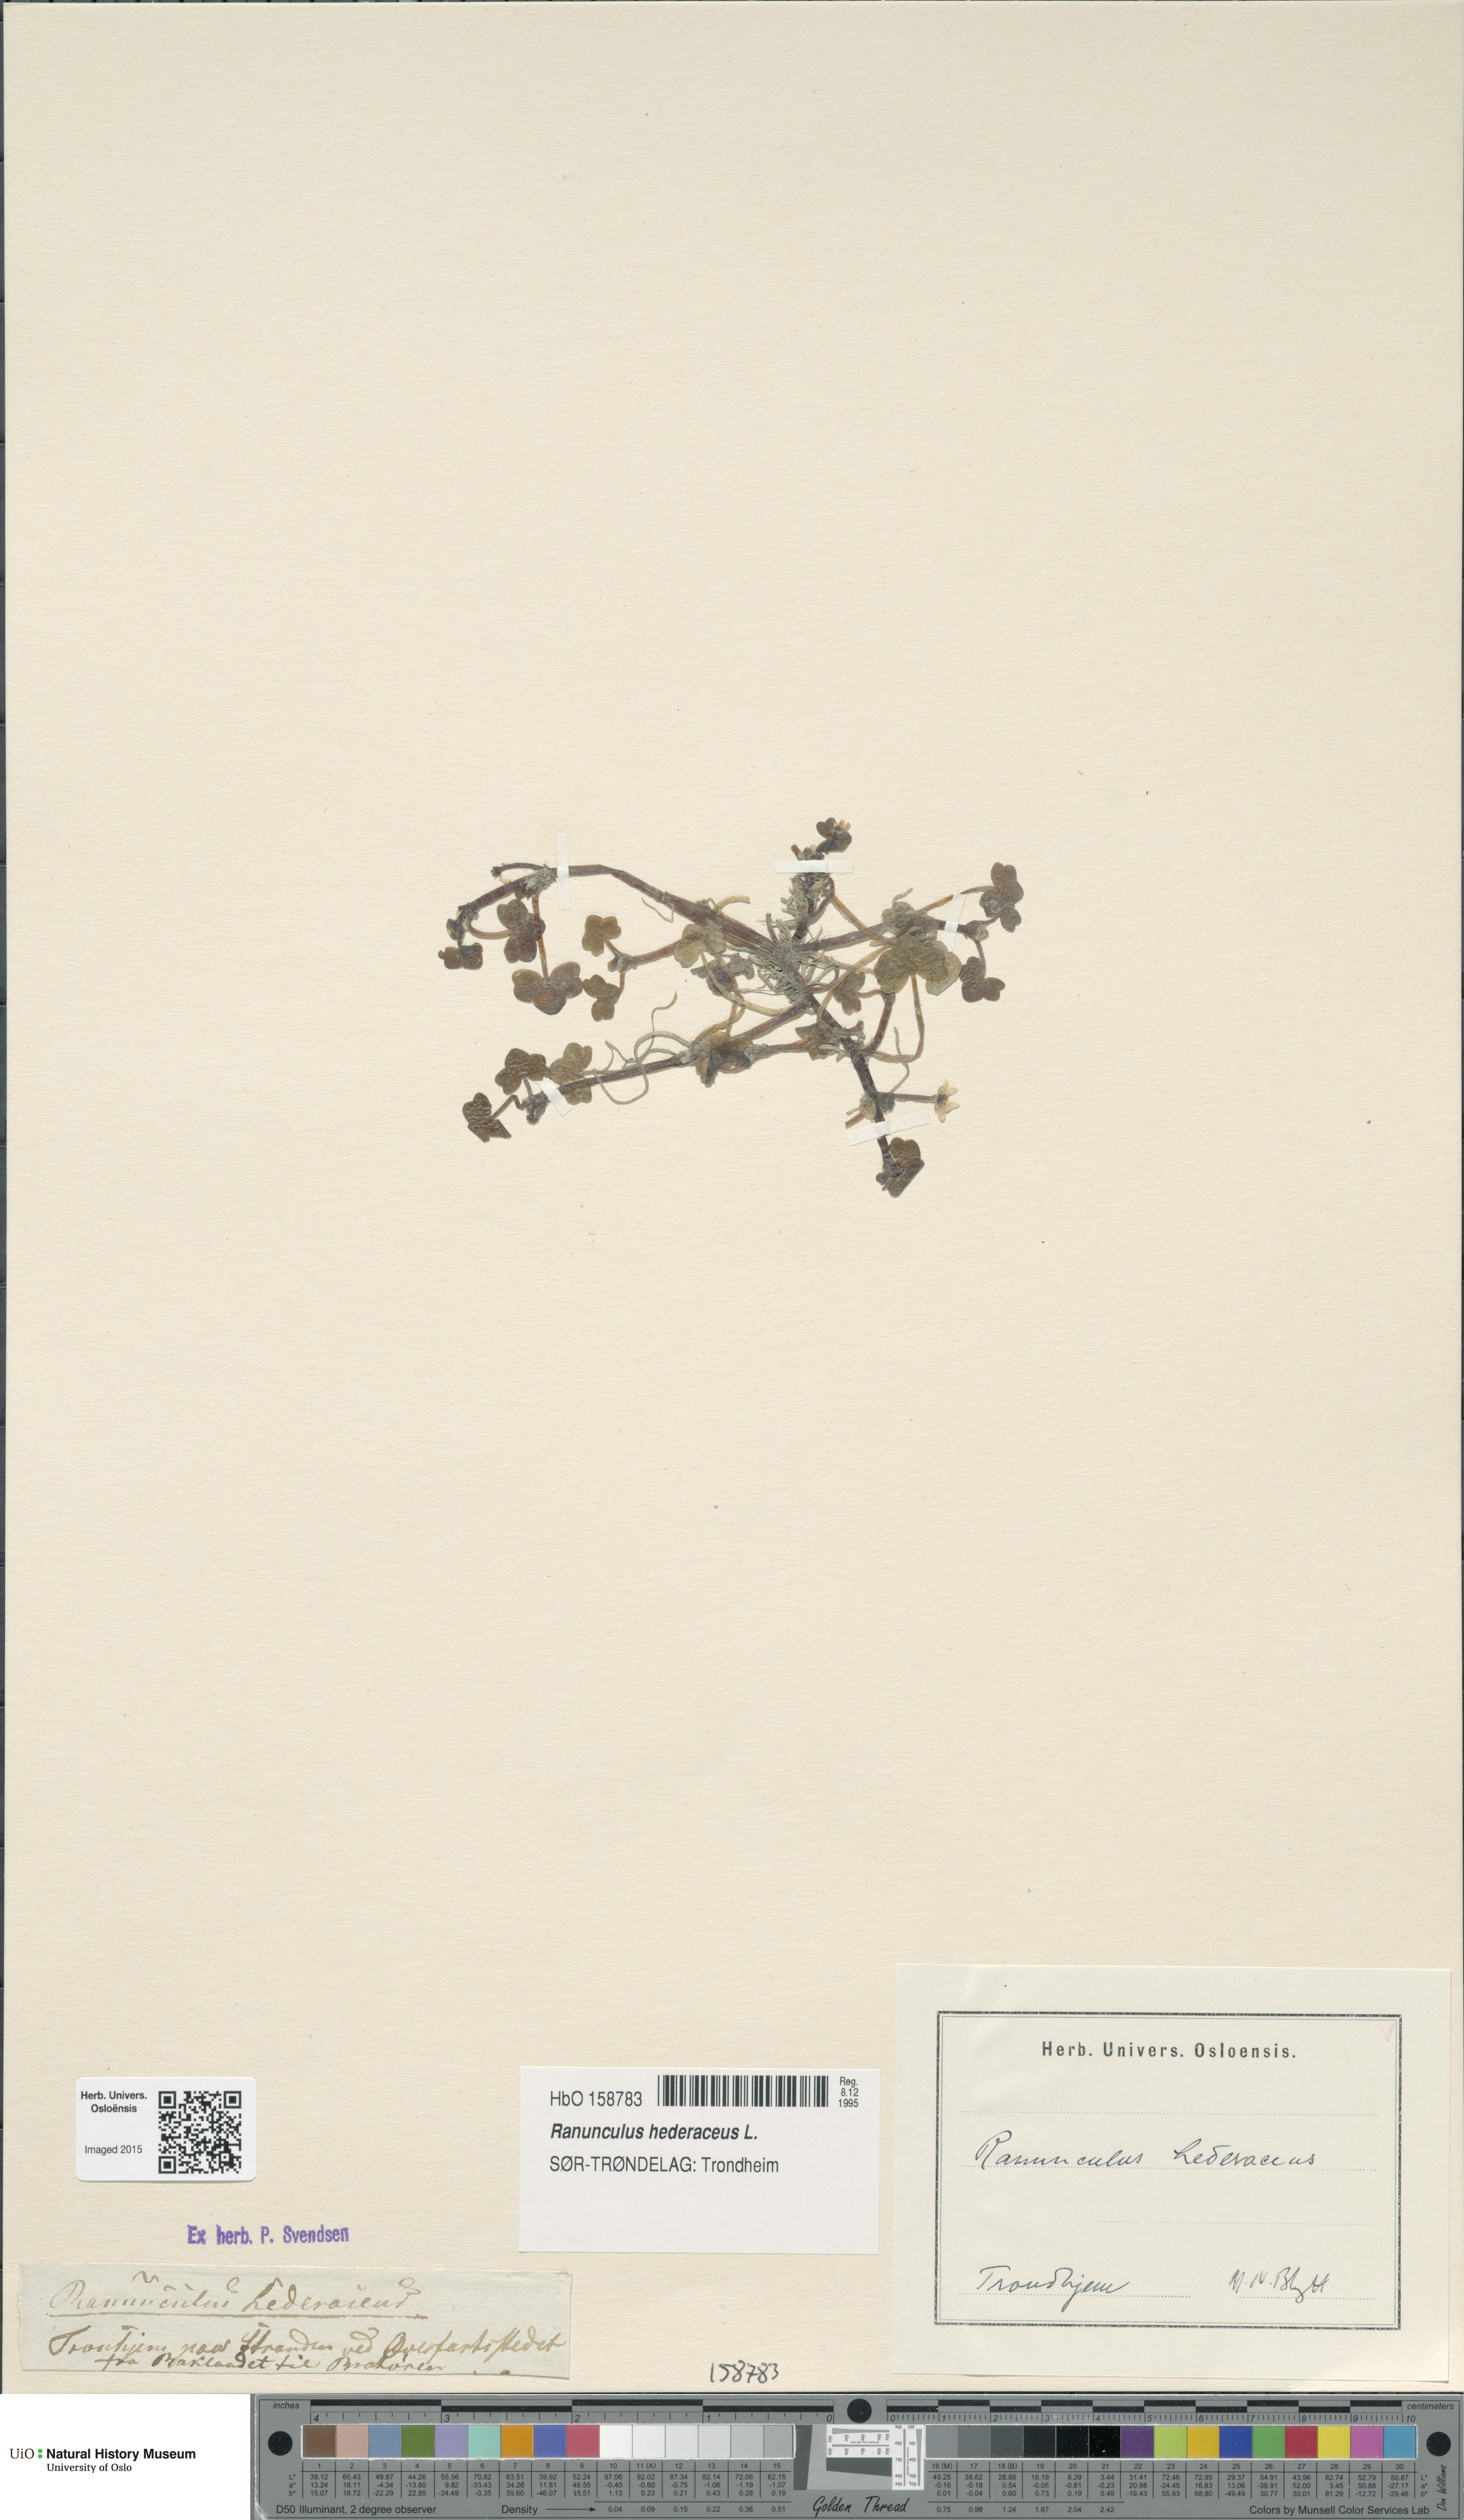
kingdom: Plantae
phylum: Tracheophyta
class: Magnoliopsida
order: Ranunculales
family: Ranunculaceae
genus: Ranunculus
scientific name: Ranunculus hederaceus
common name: Ivy-leaved crowfoot
